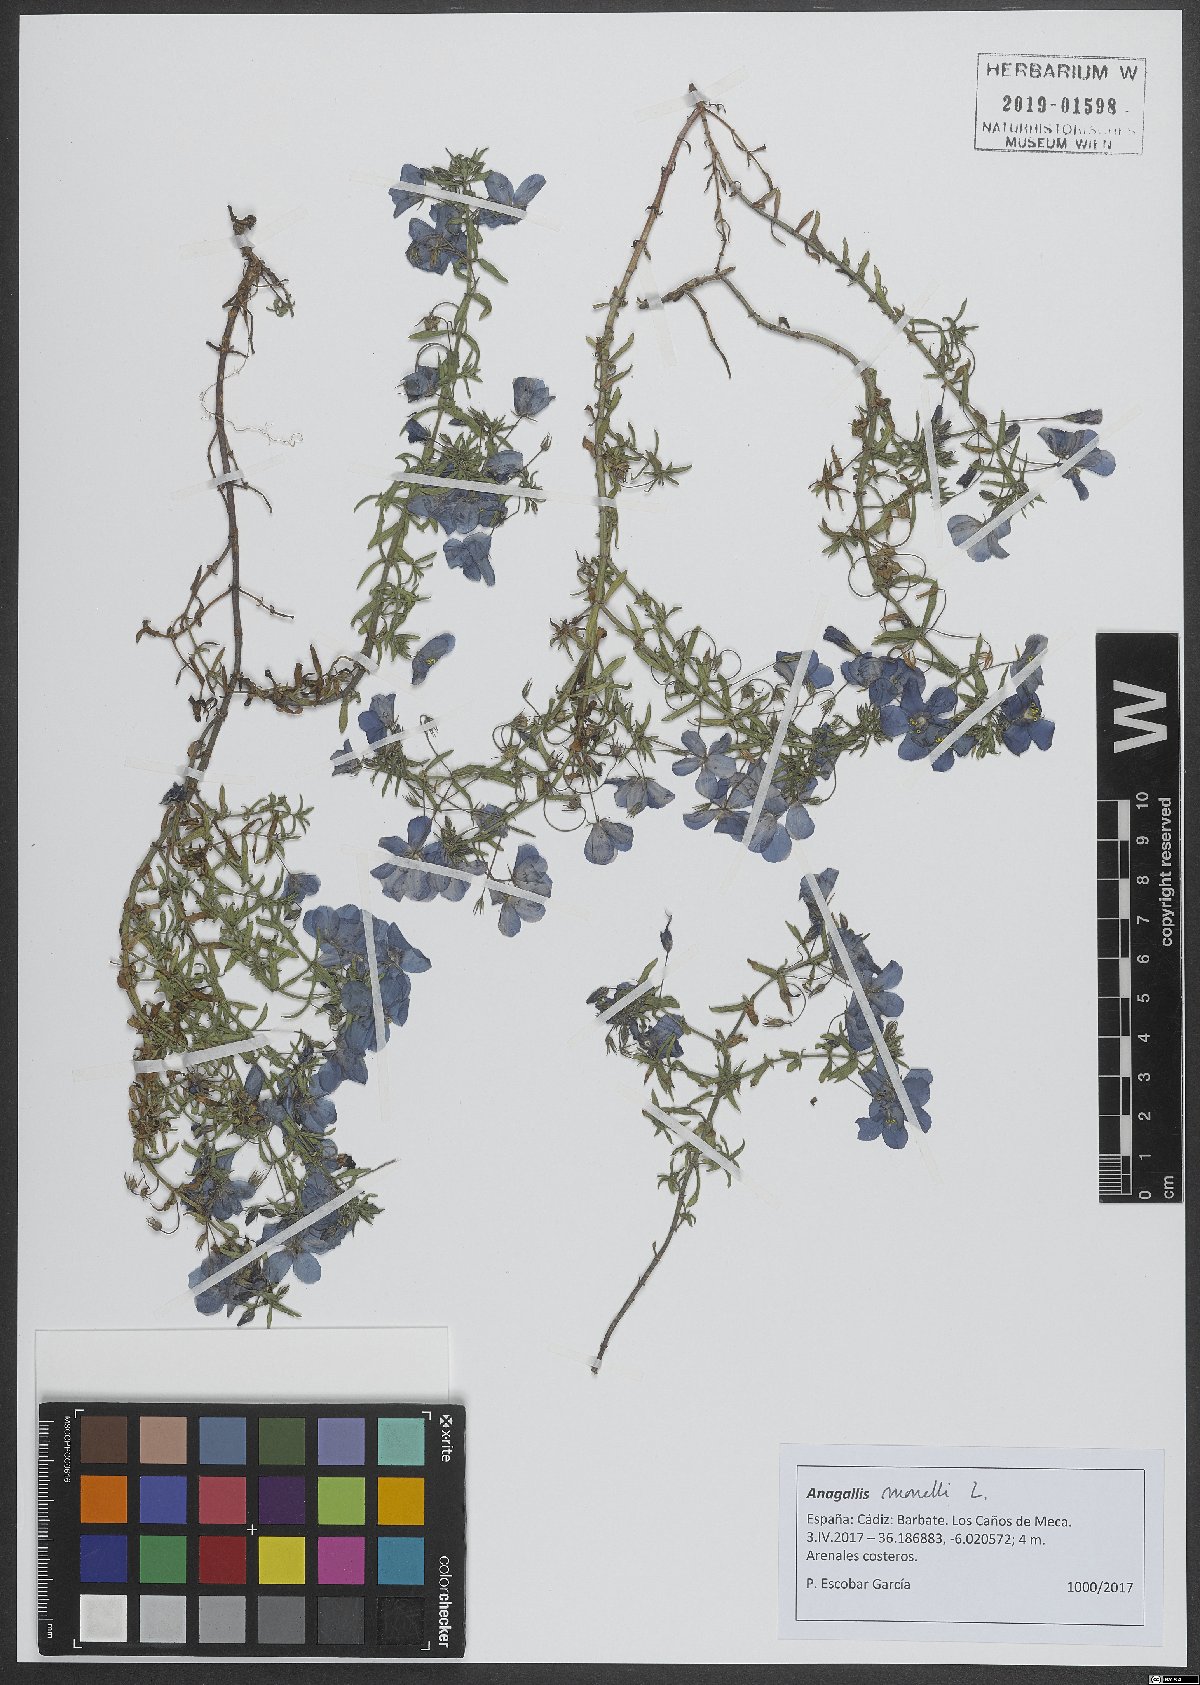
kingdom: Plantae
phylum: Tracheophyta
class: Magnoliopsida
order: Ericales
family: Primulaceae
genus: Lysimachia
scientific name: Lysimachia monelli
